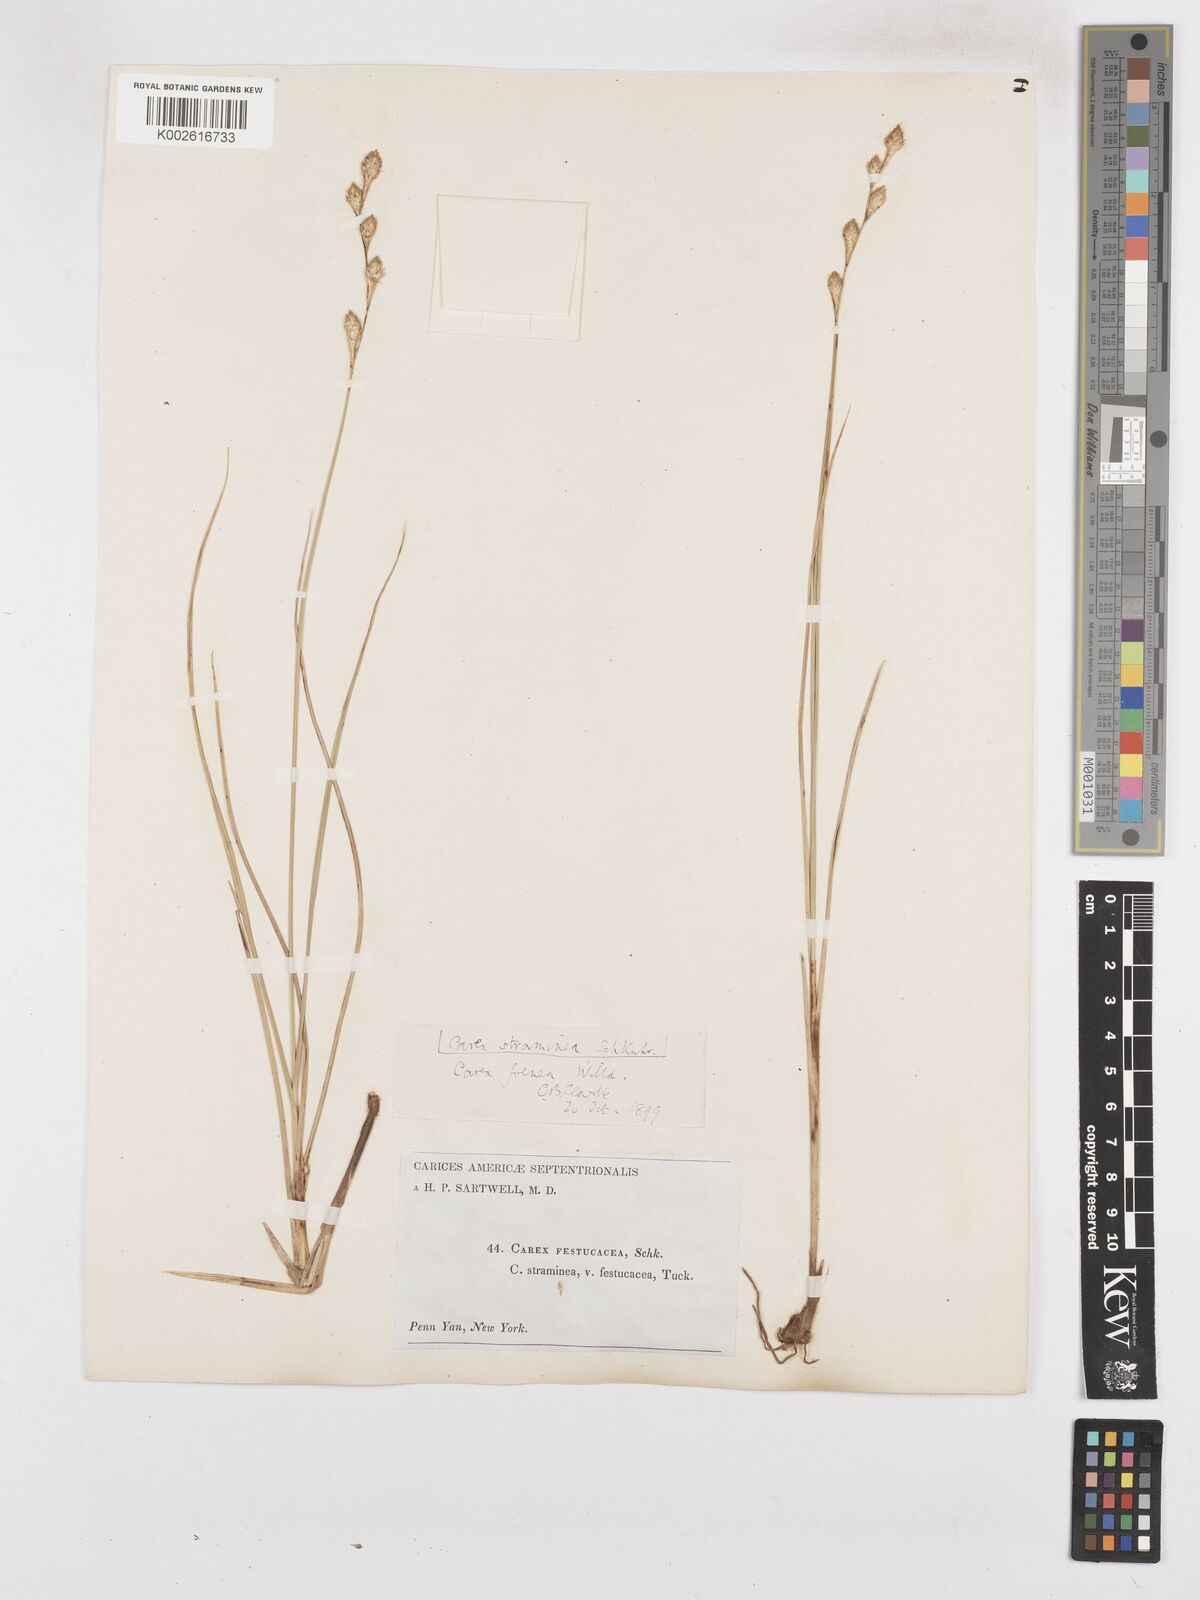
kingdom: Plantae
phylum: Tracheophyta
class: Liliopsida
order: Poales
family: Cyperaceae
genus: Carex
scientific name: Carex argyrantha
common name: Silvery-flowered sedge
